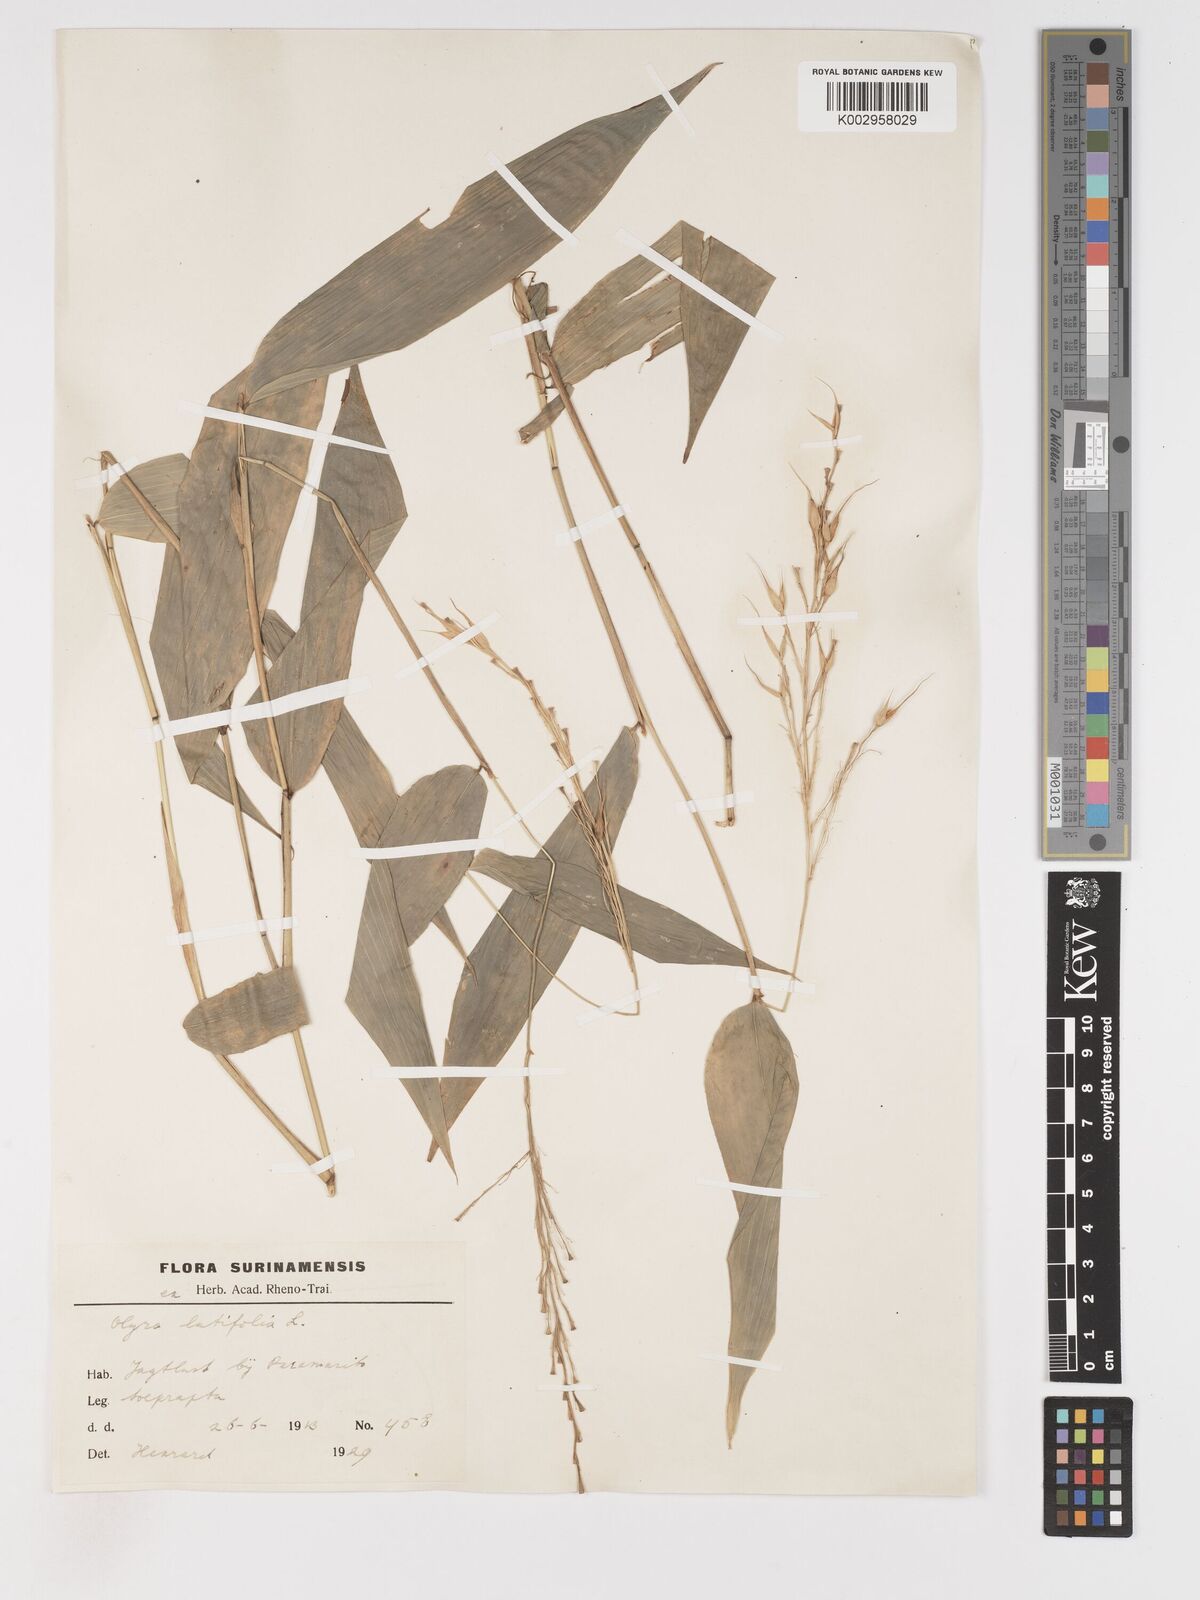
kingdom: Plantae
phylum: Tracheophyta
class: Liliopsida
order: Poales
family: Poaceae
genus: Olyra
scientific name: Olyra latifolia
